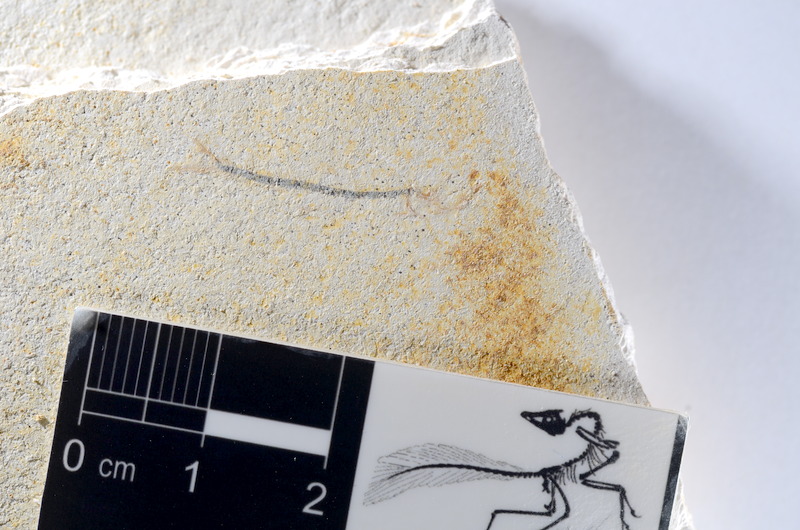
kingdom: Animalia
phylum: Chordata
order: Salmoniformes
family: Orthogonikleithridae
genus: Orthogonikleithrus
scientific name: Orthogonikleithrus hoelli
